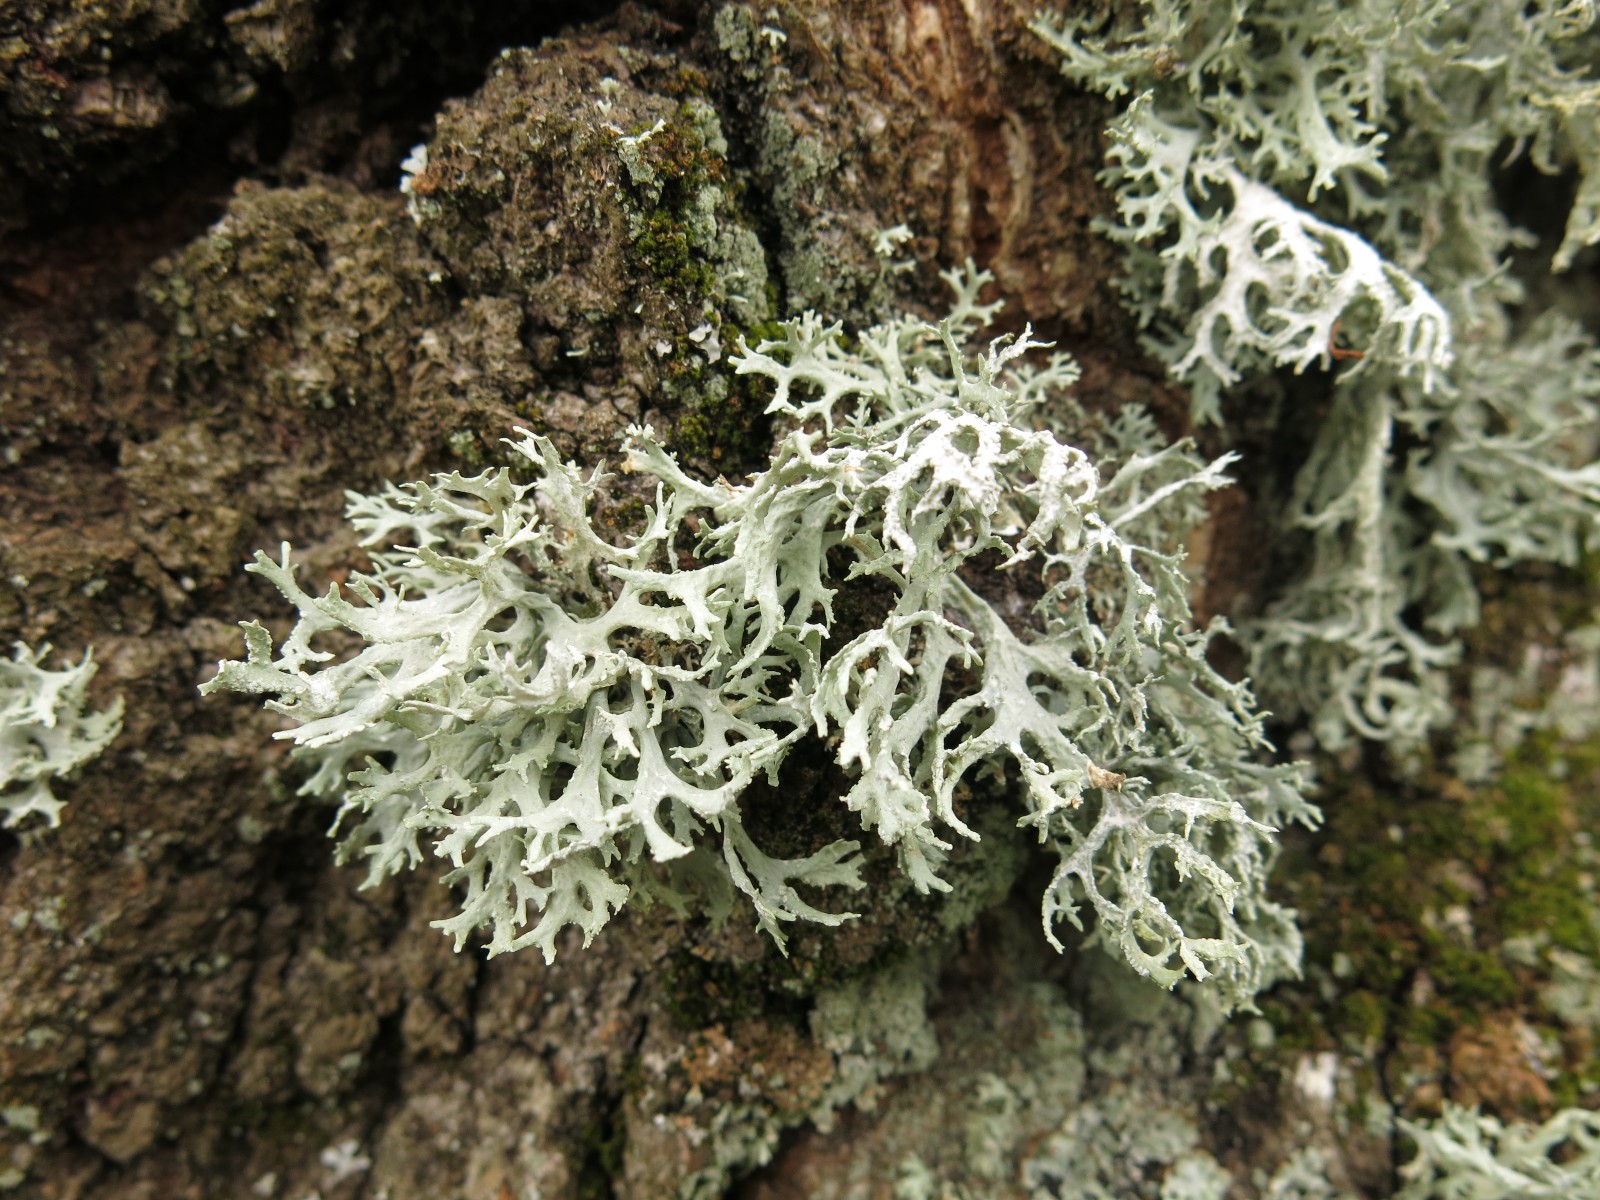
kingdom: Fungi
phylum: Ascomycota
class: Lecanoromycetes
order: Lecanorales
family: Parmeliaceae
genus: Evernia
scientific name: Evernia prunastri
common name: almindelig slåenlav
